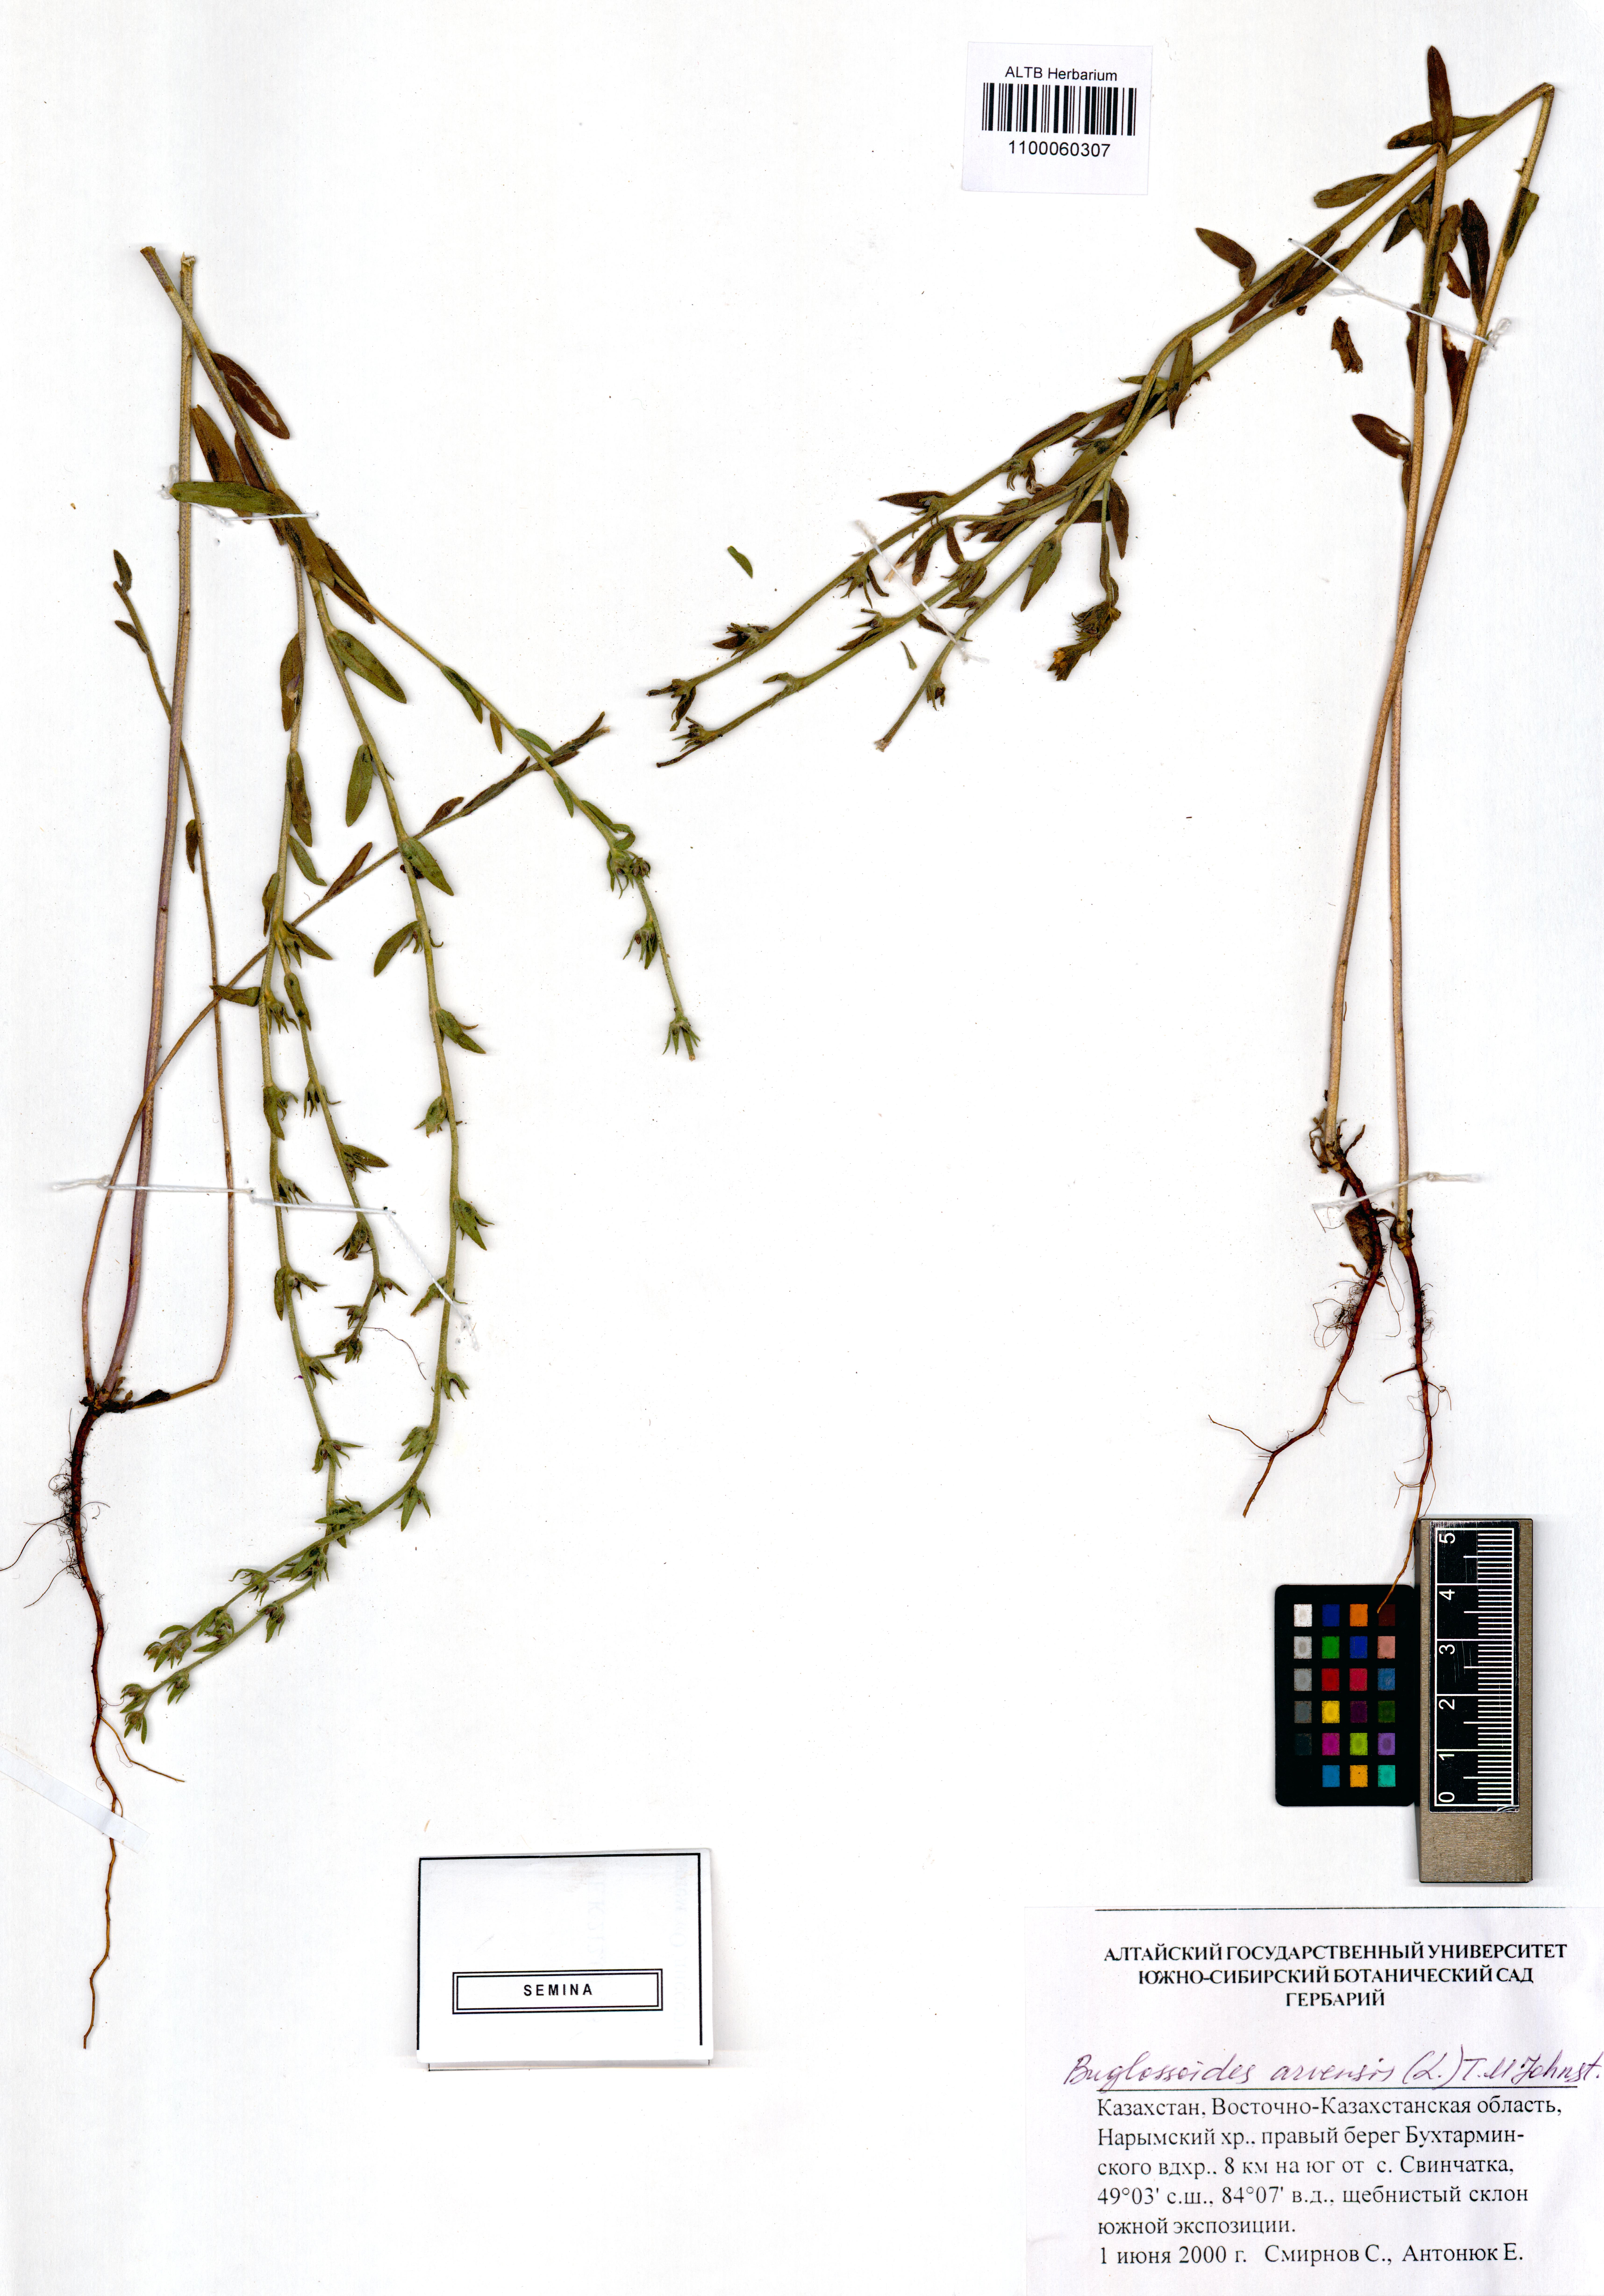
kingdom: Plantae
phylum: Tracheophyta
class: Magnoliopsida
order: Boraginales
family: Boraginaceae
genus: Buglossoides
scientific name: Buglossoides arvensis
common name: Corn gromwell
